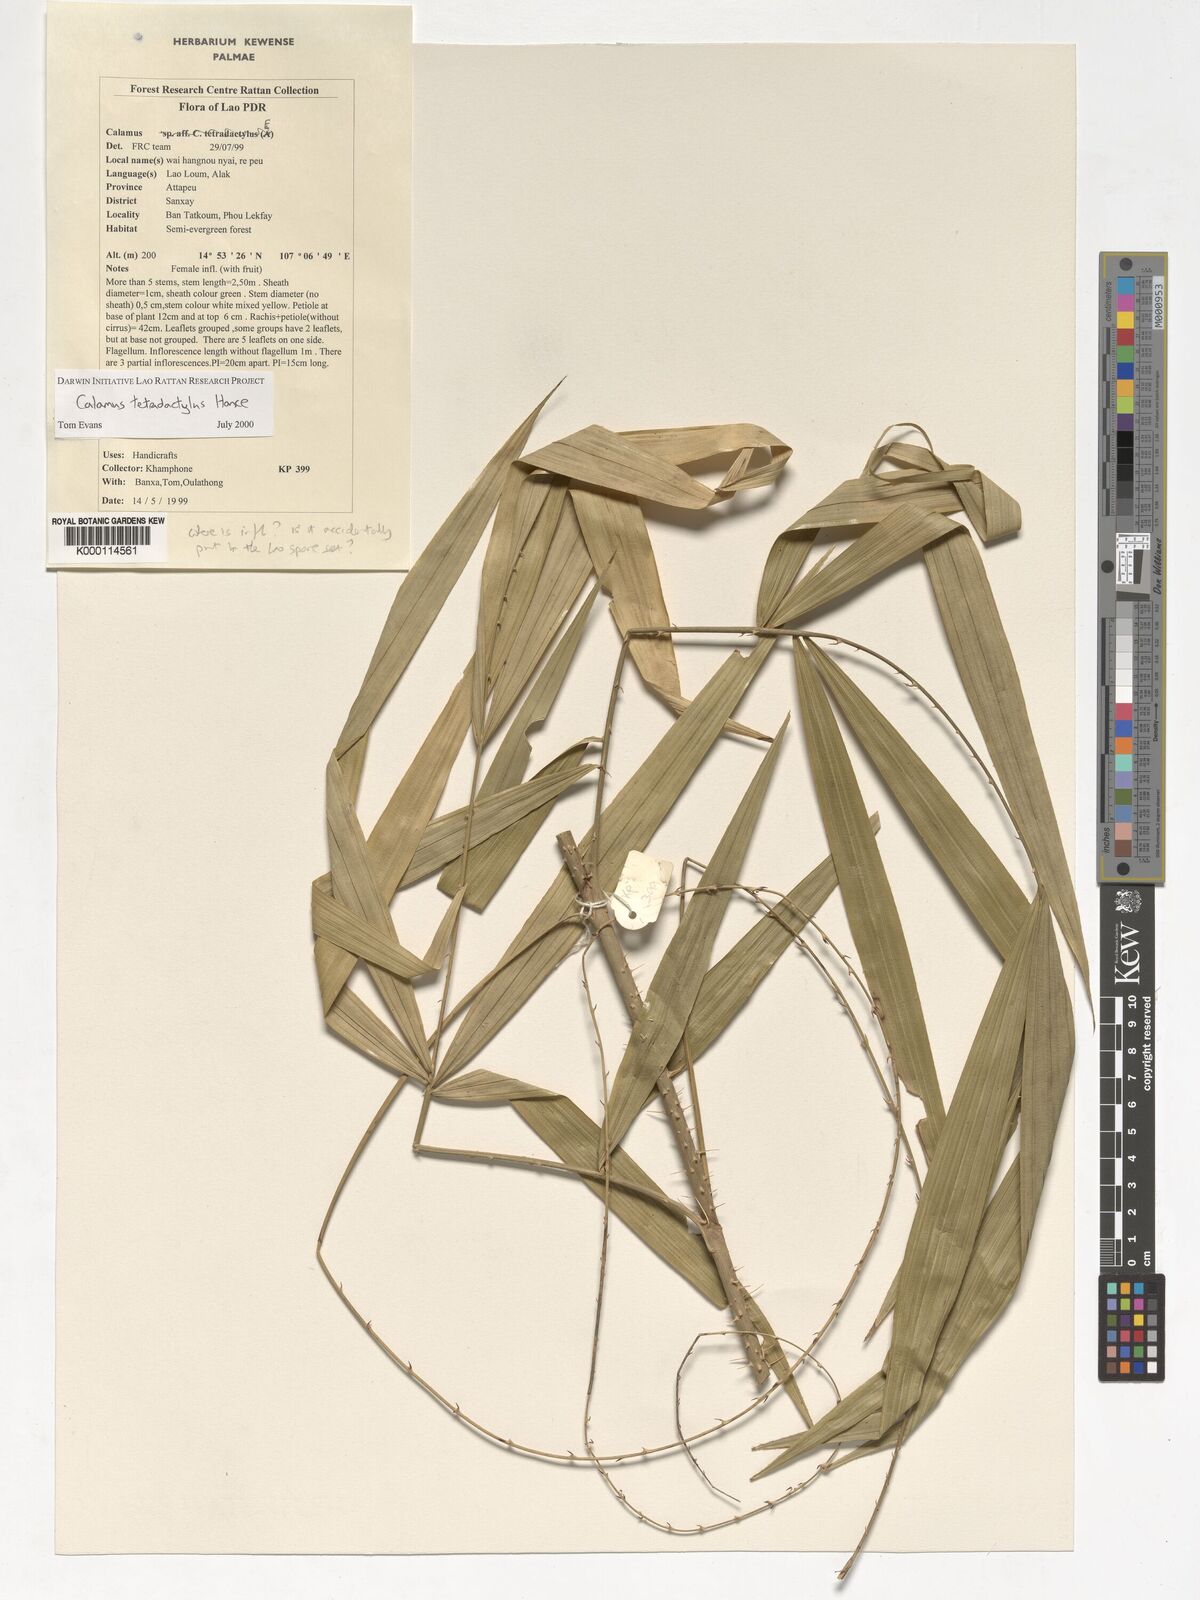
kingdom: Plantae
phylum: Tracheophyta
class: Liliopsida
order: Arecales
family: Arecaceae
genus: Calamus
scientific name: Calamus tetradactylus
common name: White rattan
